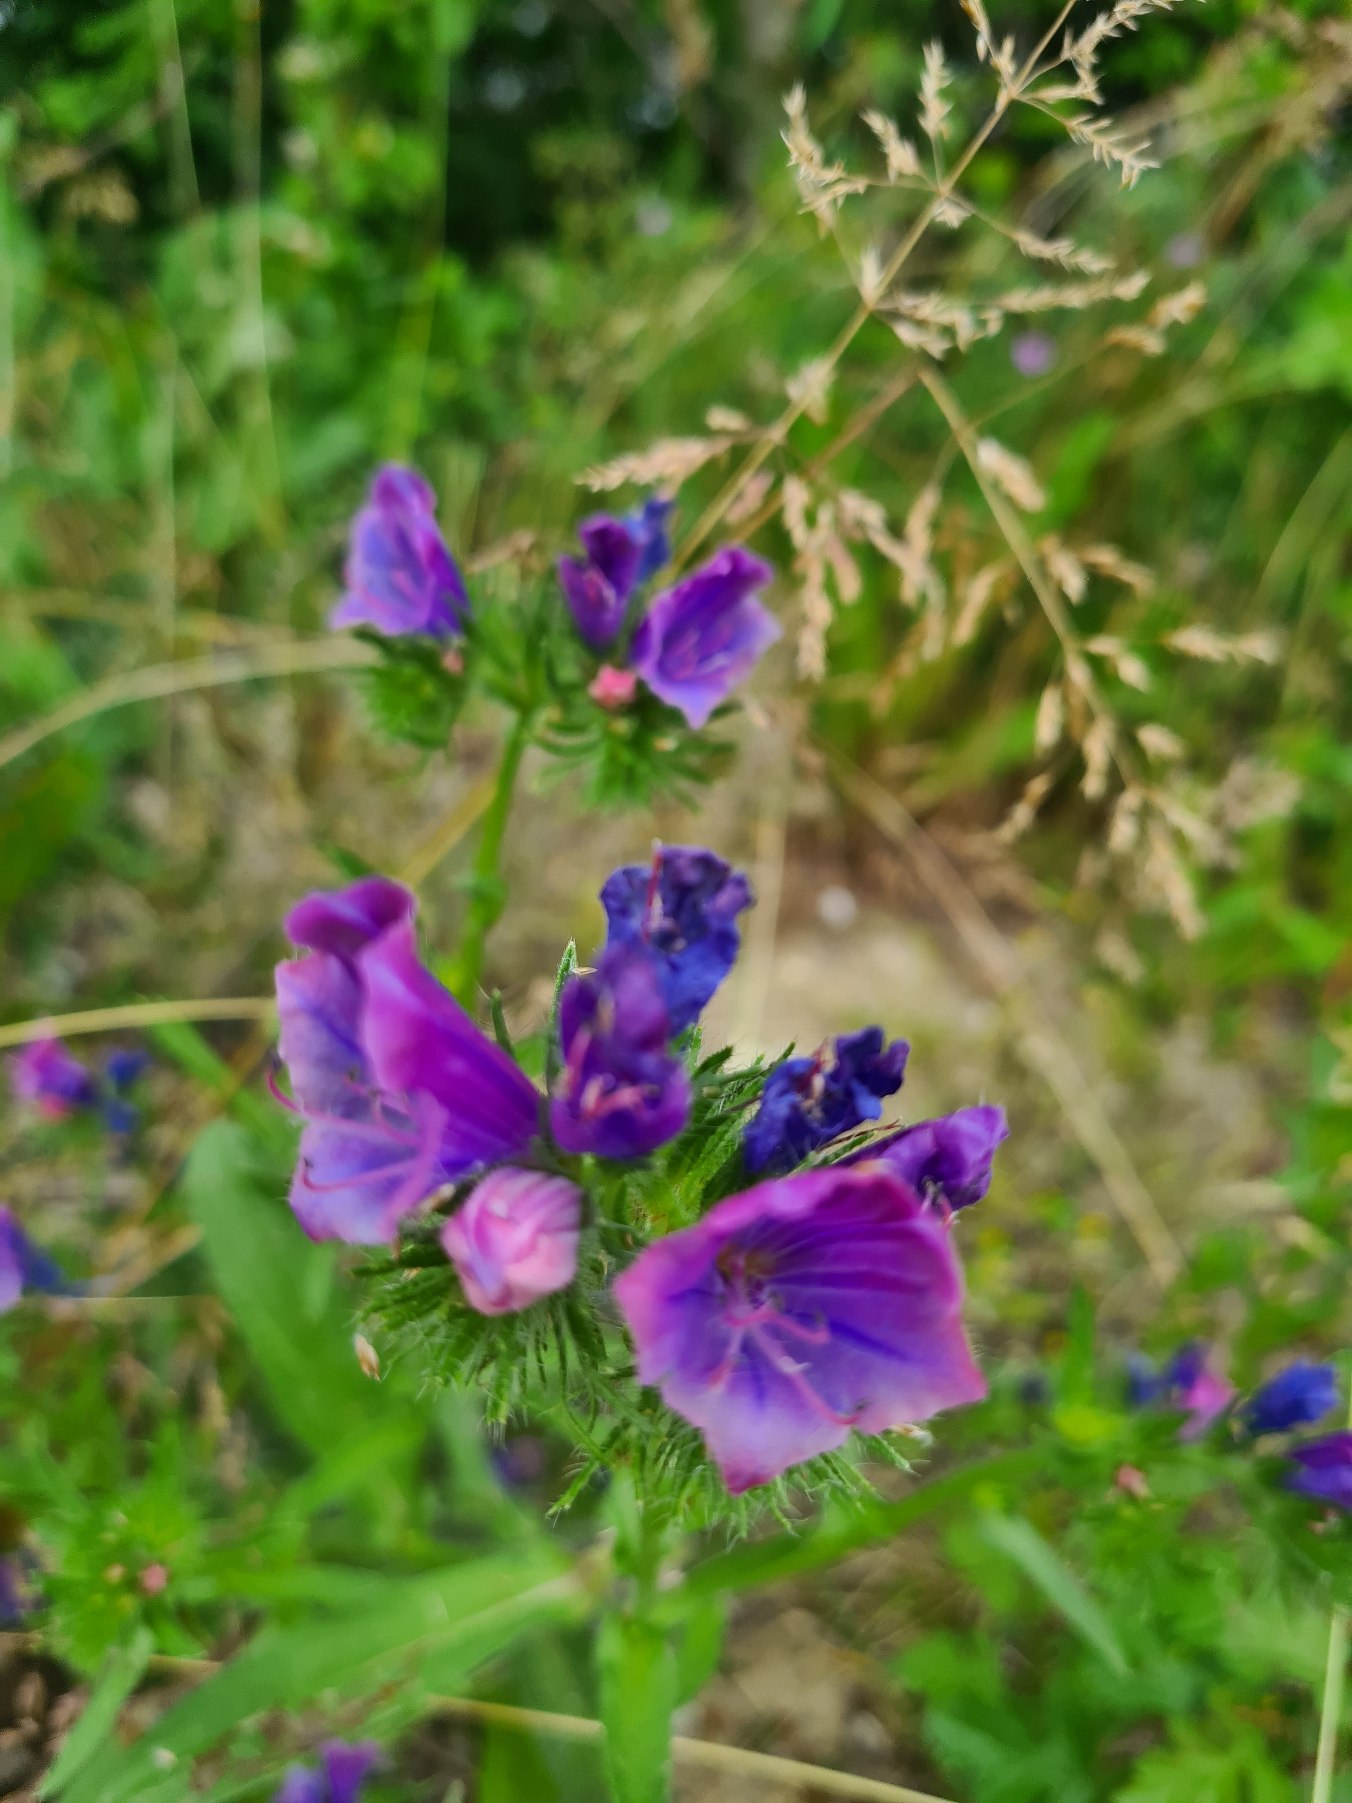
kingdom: Plantae
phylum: Tracheophyta
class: Magnoliopsida
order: Boraginales
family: Boraginaceae
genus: Echium
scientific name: Echium vulgare
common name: Slangehoved
